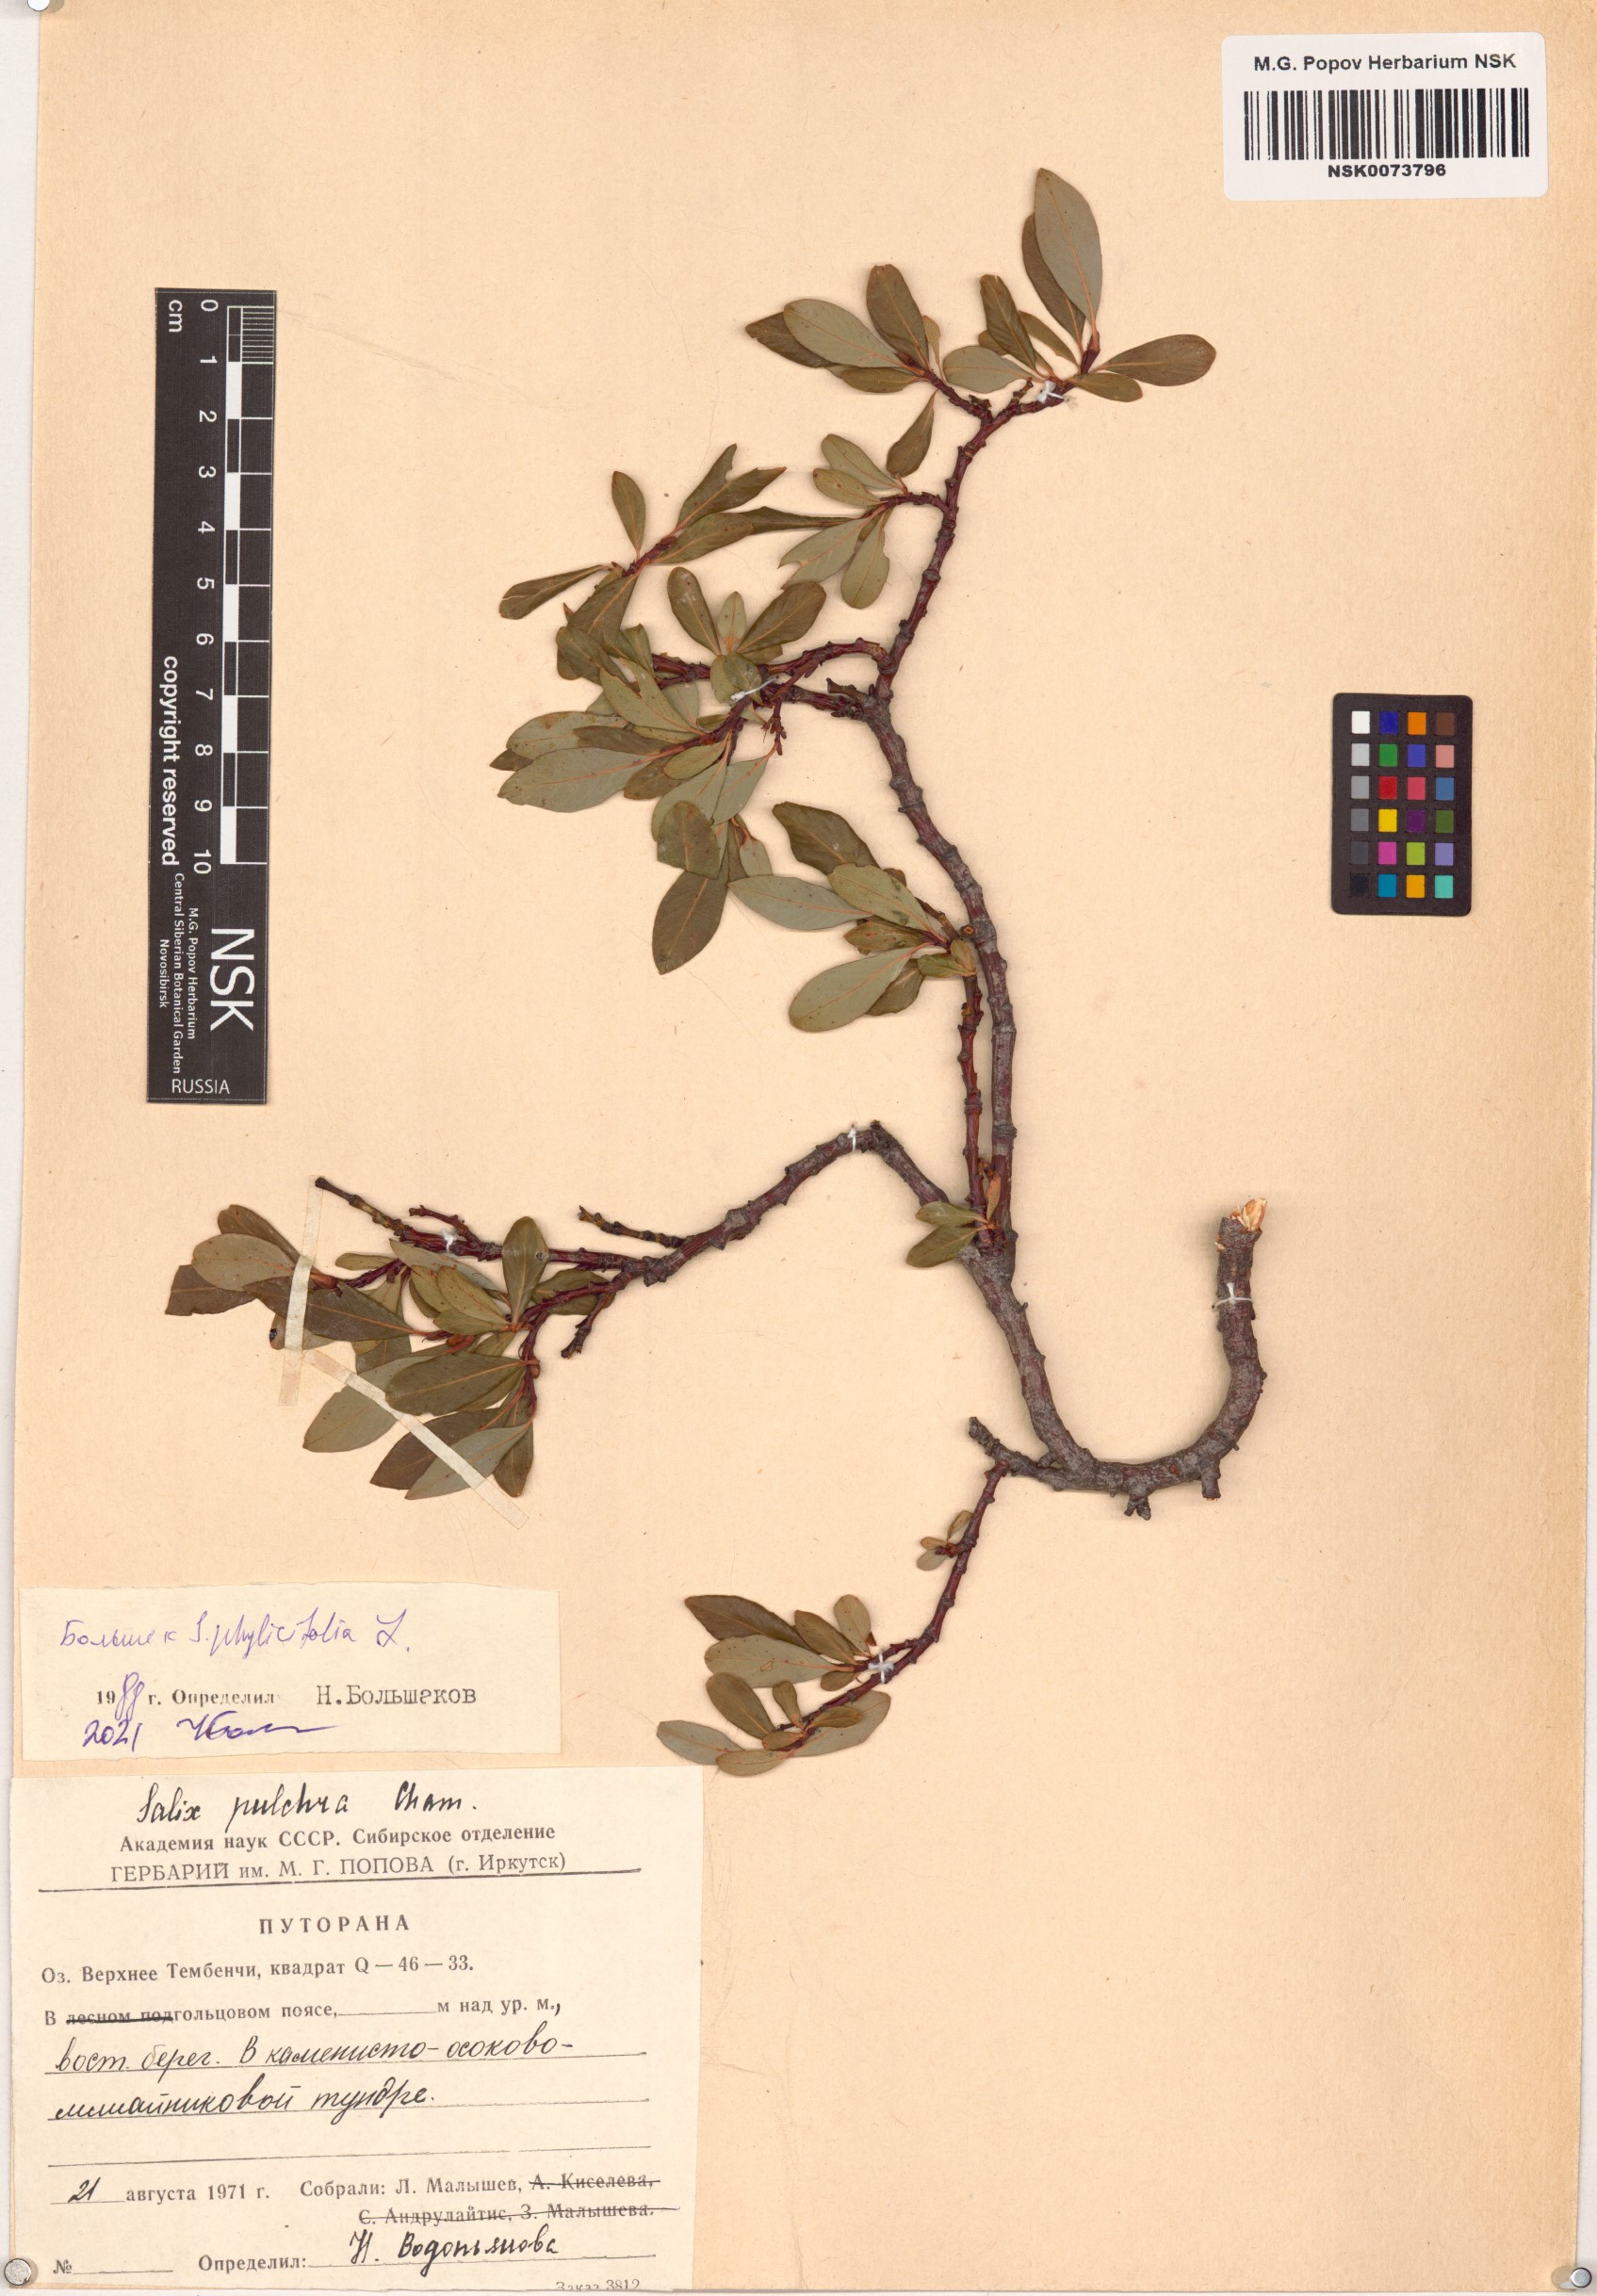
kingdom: Plantae
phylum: Tracheophyta
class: Magnoliopsida
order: Malpighiales
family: Salicaceae
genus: Salix
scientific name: Salix phylicifolia
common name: Tea-leaved willow
